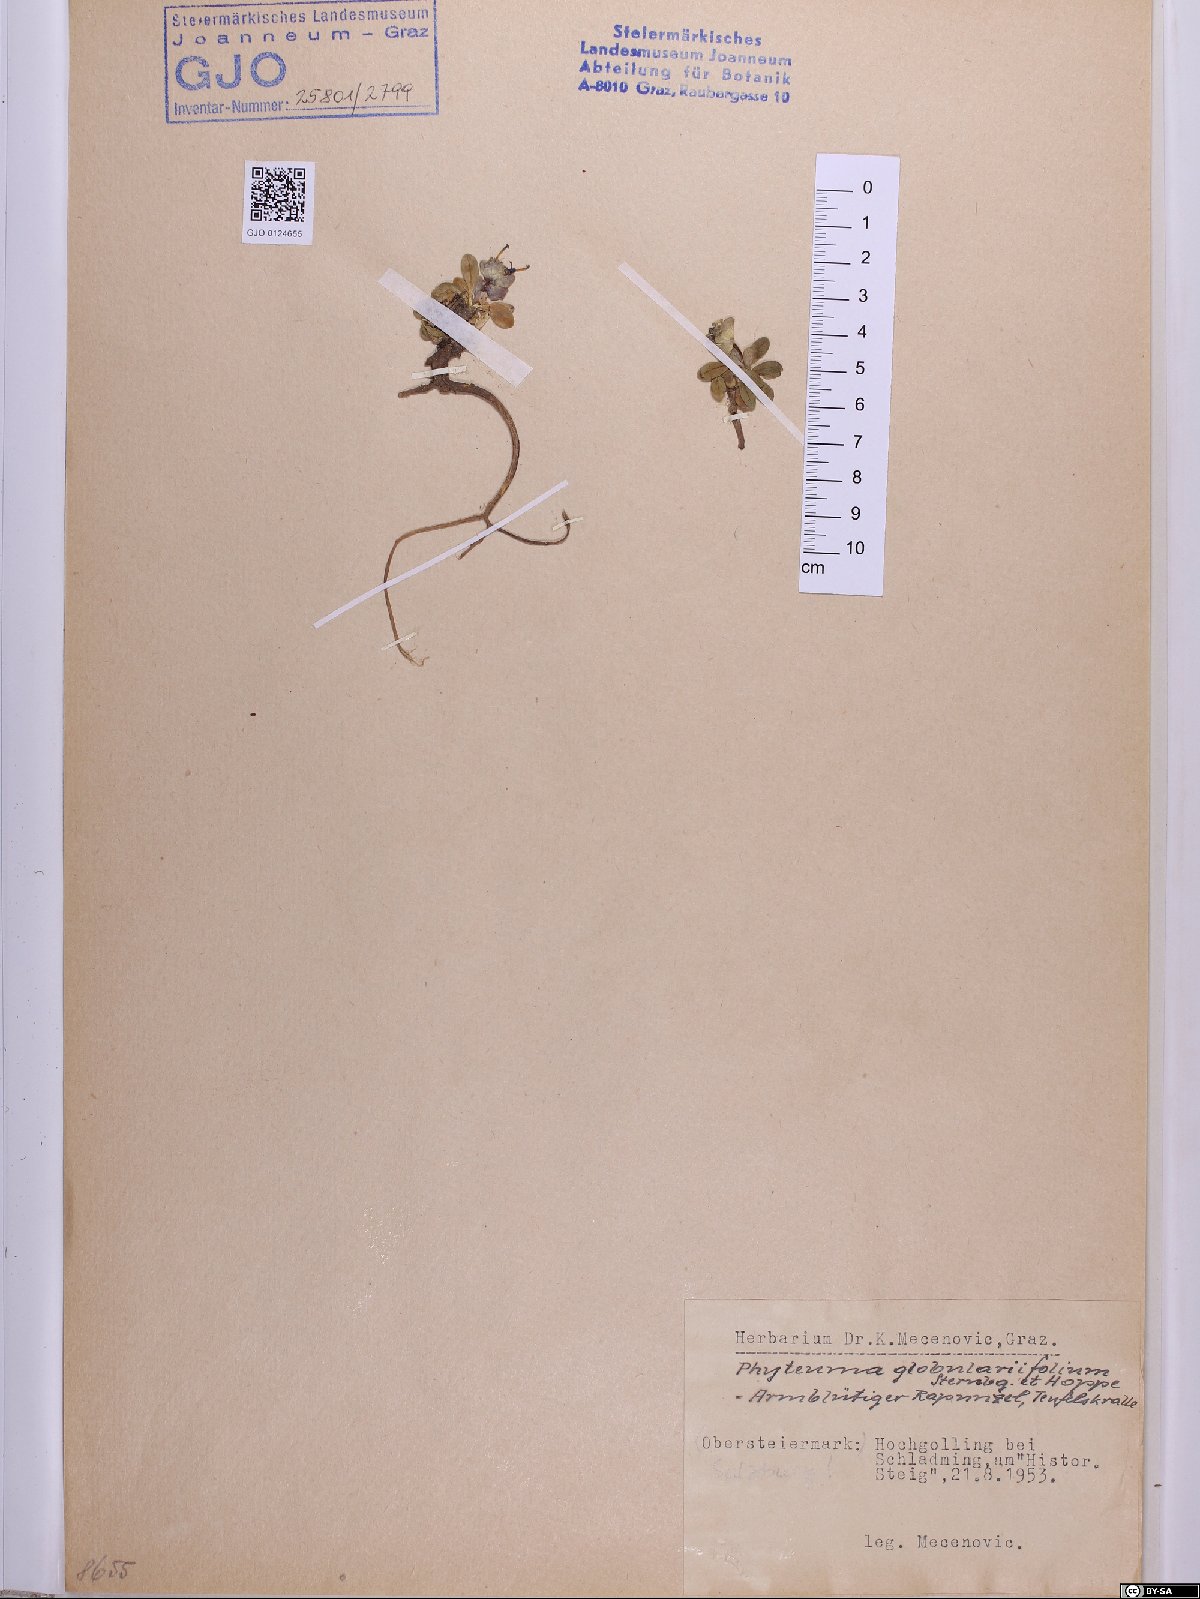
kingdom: Plantae
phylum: Tracheophyta
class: Magnoliopsida
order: Asterales
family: Campanulaceae
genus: Phyteuma
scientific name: Phyteuma globulariifolium
